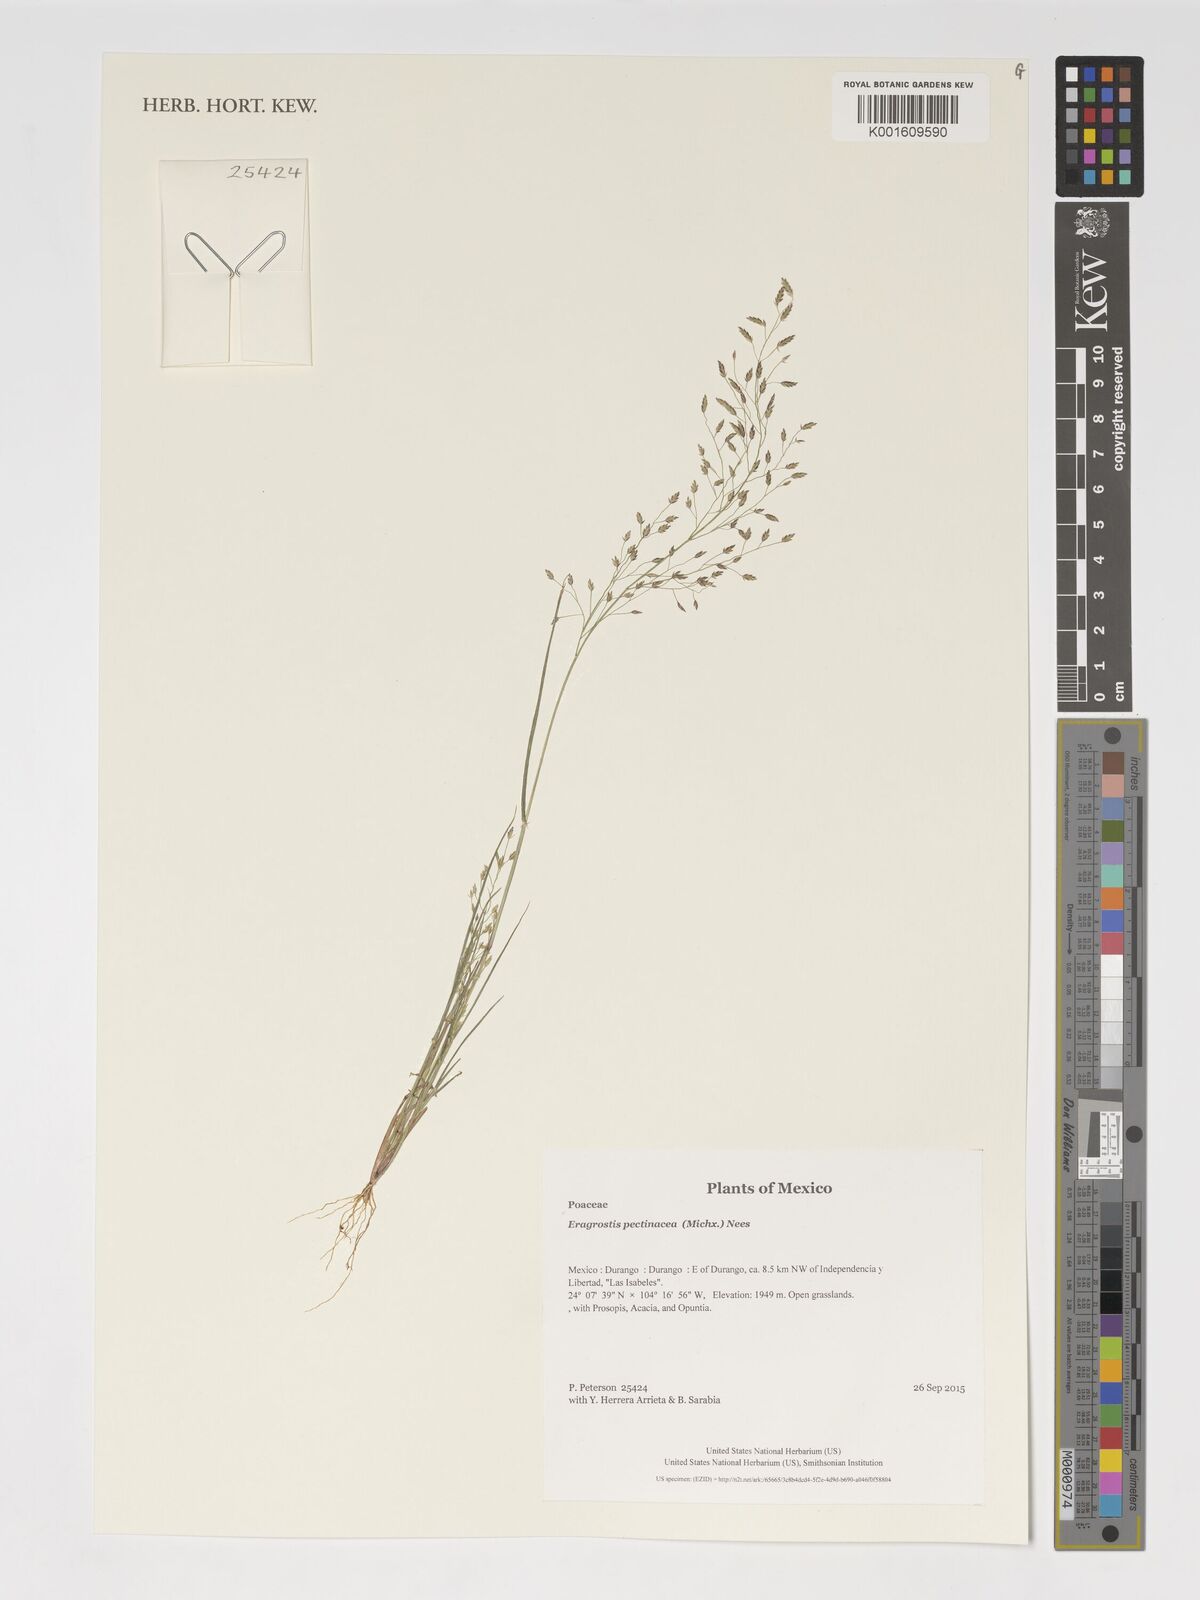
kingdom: Plantae
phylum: Tracheophyta
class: Liliopsida
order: Poales
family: Poaceae
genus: Eragrostis
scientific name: Eragrostis pectinacea
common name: Tufted lovegrass
